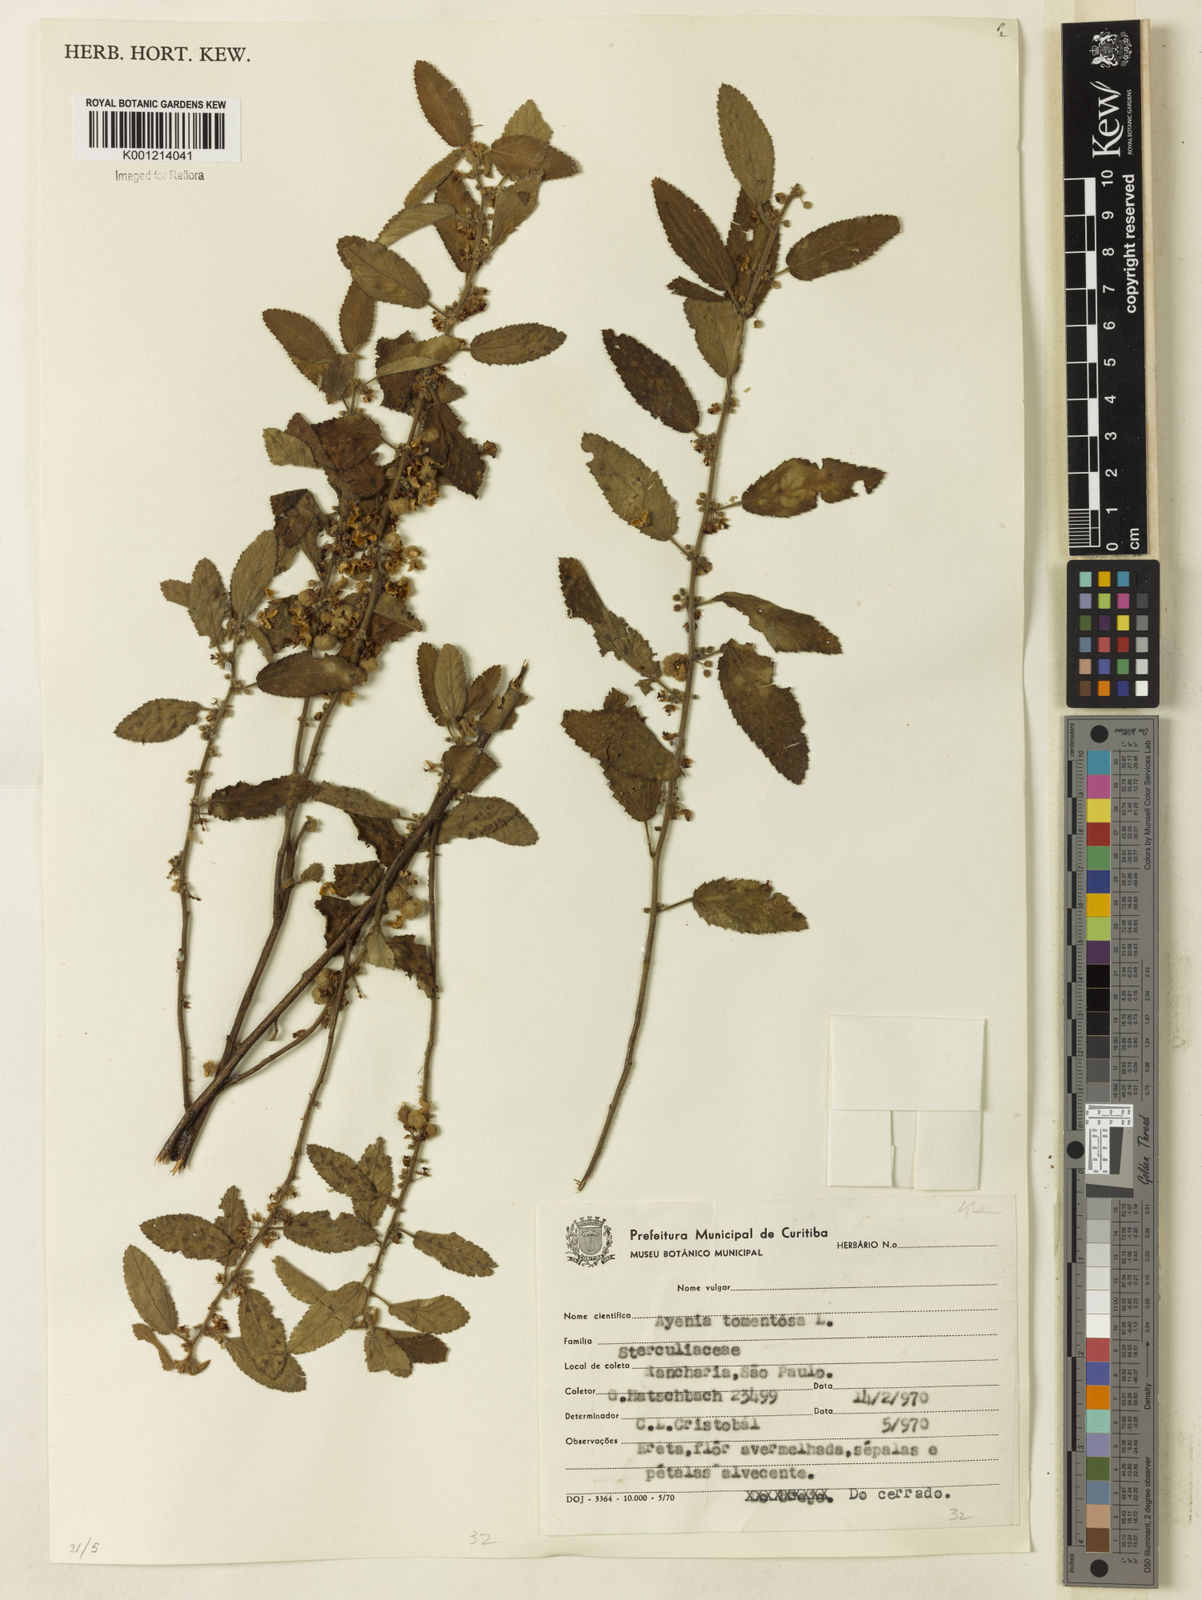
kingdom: Plantae
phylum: Tracheophyta
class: Magnoliopsida
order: Malvales
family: Malvaceae
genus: Ayenia
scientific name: Ayenia tomentosa
